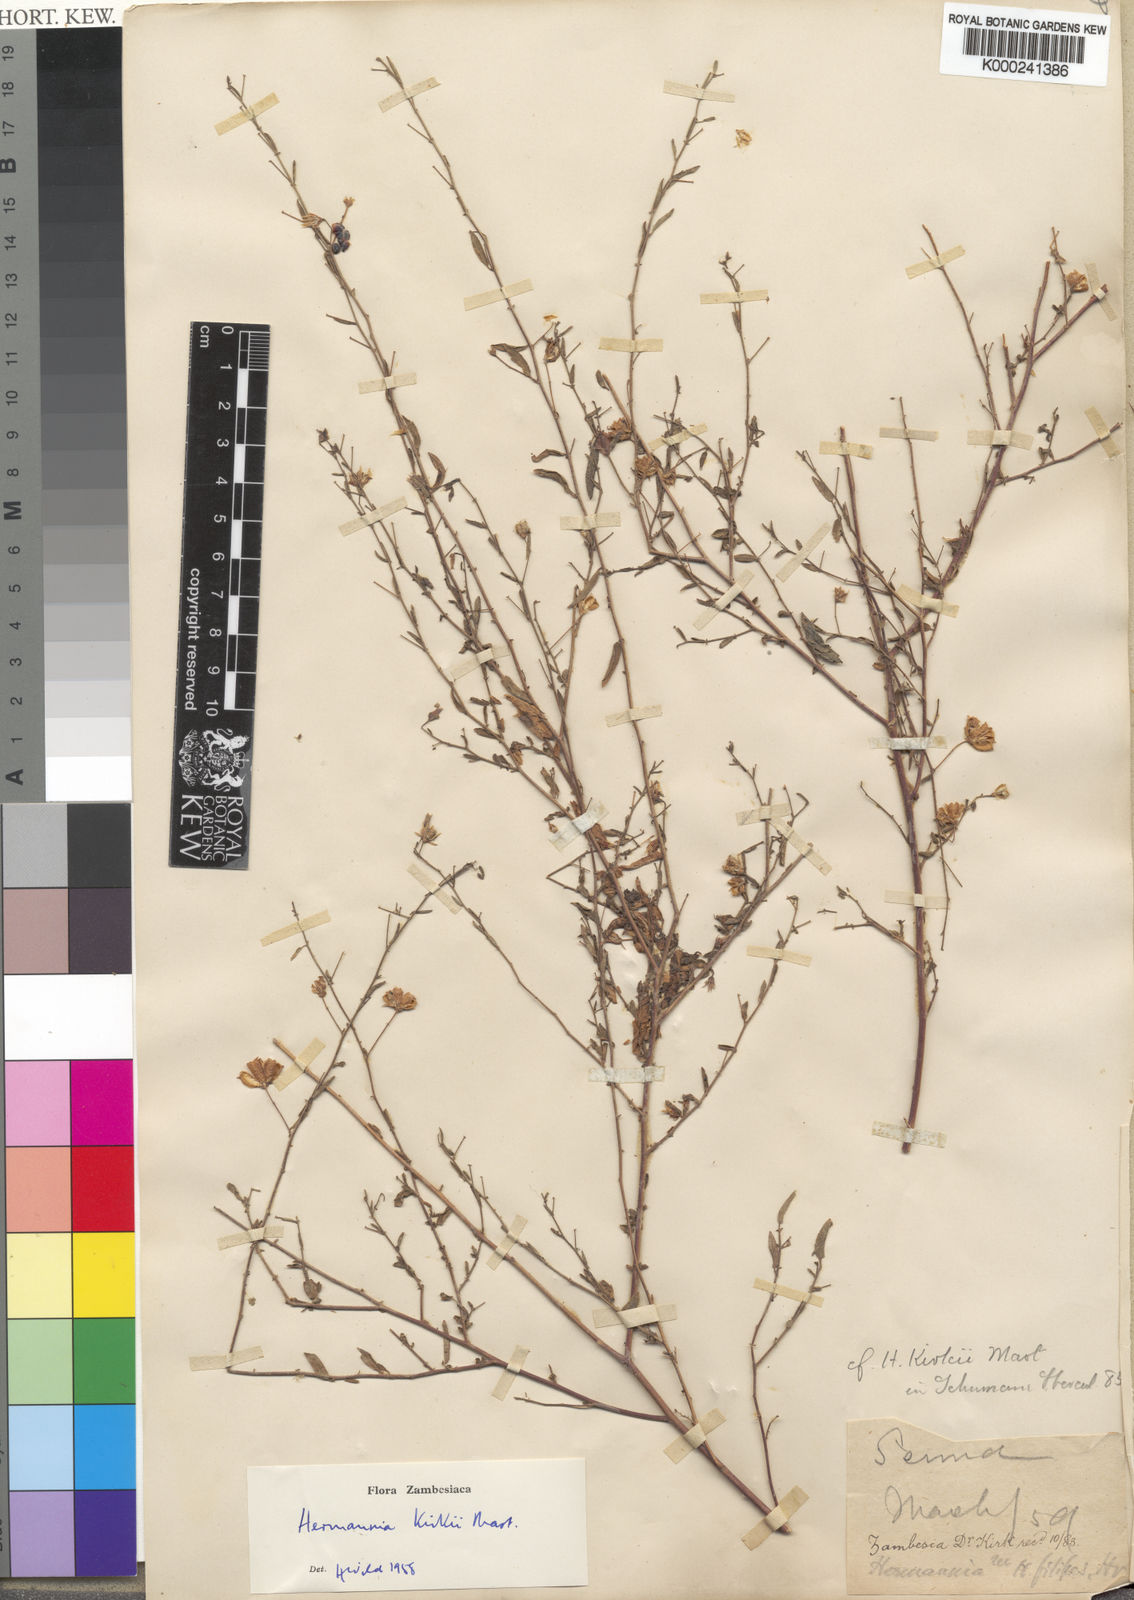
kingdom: Plantae
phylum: Tracheophyta
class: Magnoliopsida
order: Malvales
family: Malvaceae
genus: Hermannia
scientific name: Hermannia modesta
